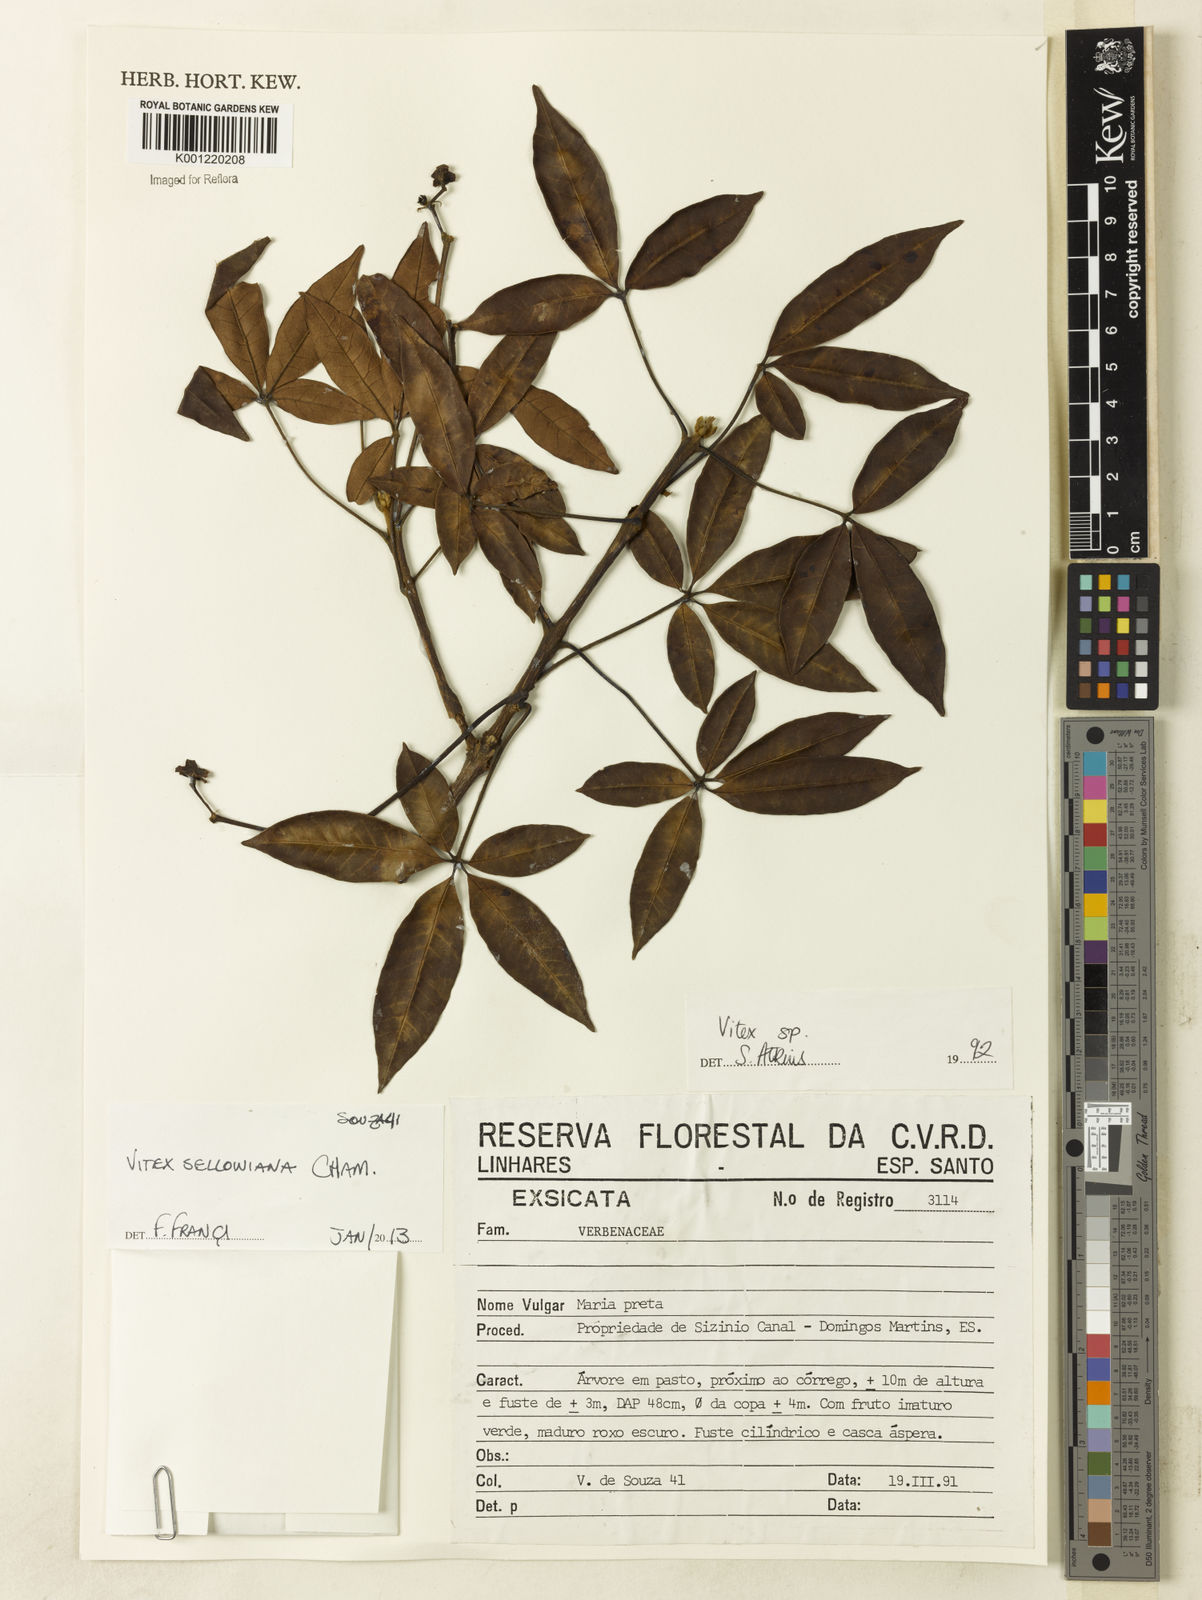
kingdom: Plantae
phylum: Tracheophyta
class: Magnoliopsida
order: Lamiales
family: Lamiaceae
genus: Vitex
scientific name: Vitex sellowiana
